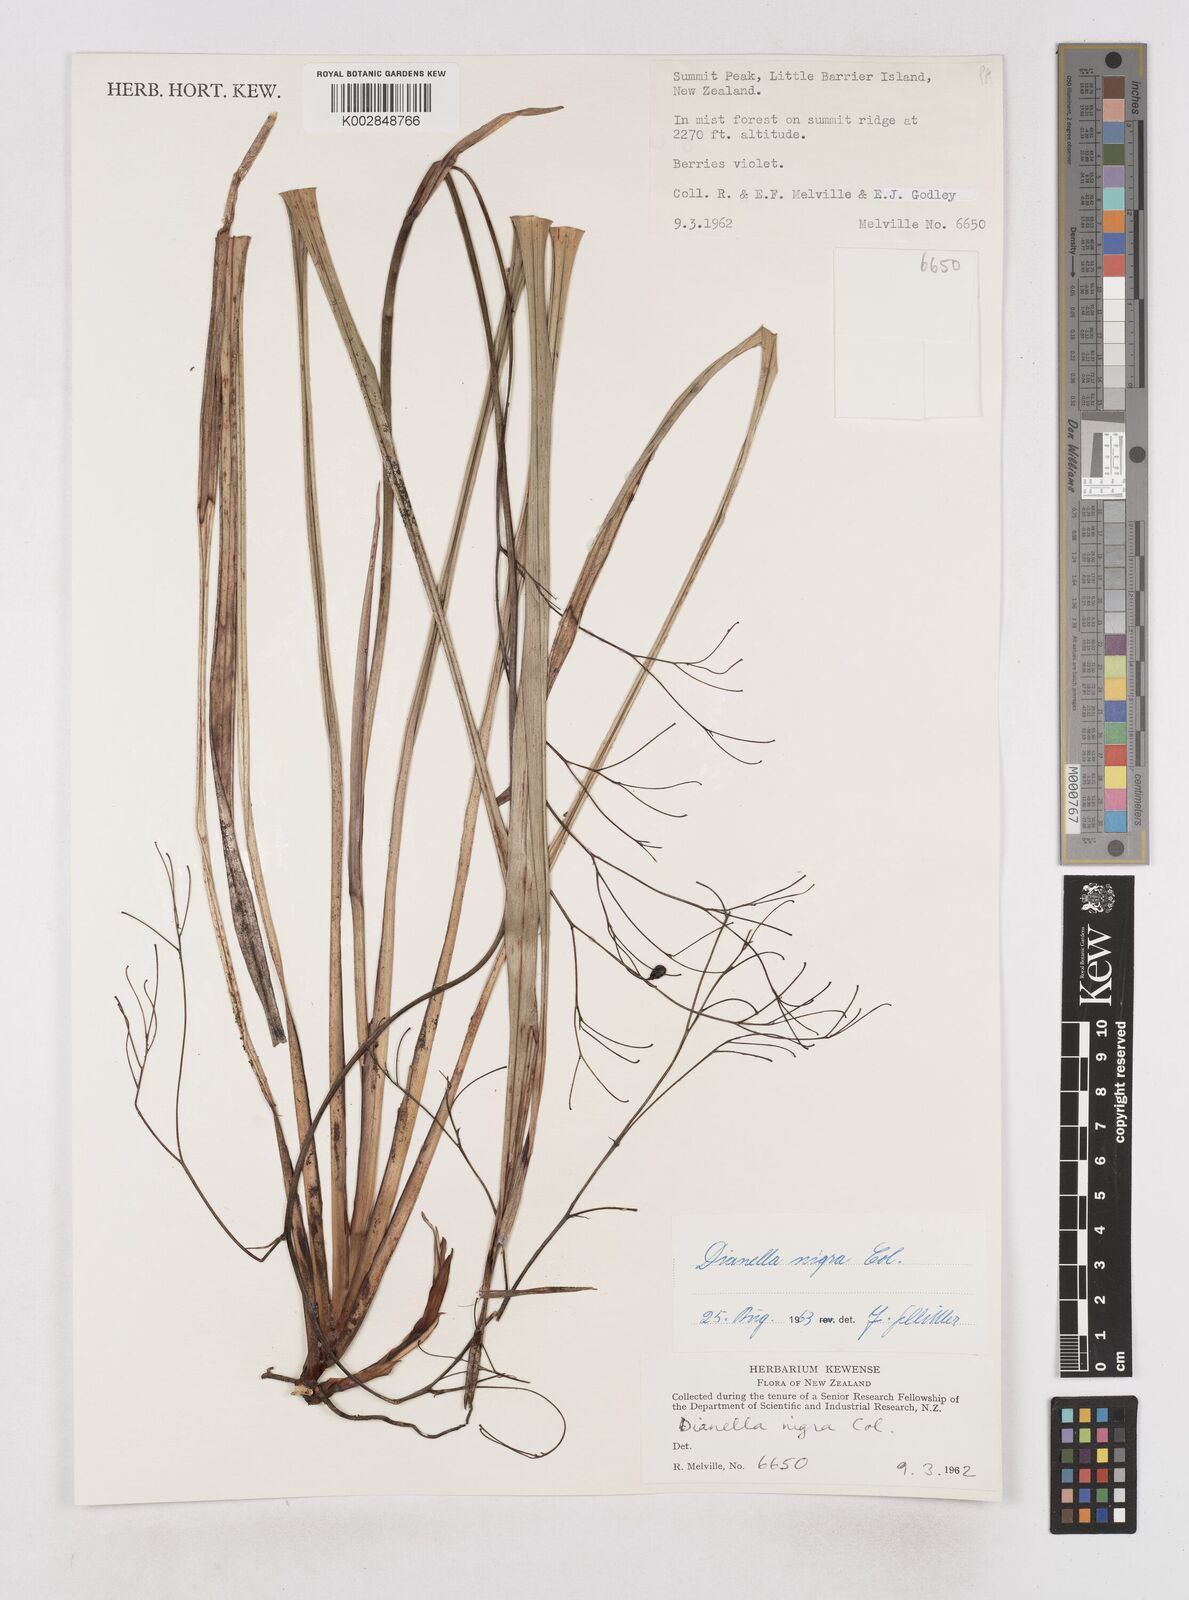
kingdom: Plantae
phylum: Tracheophyta
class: Liliopsida
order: Asparagales
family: Asphodelaceae
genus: Dianella
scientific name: Dianella nigra
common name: New zealand-blueberry
